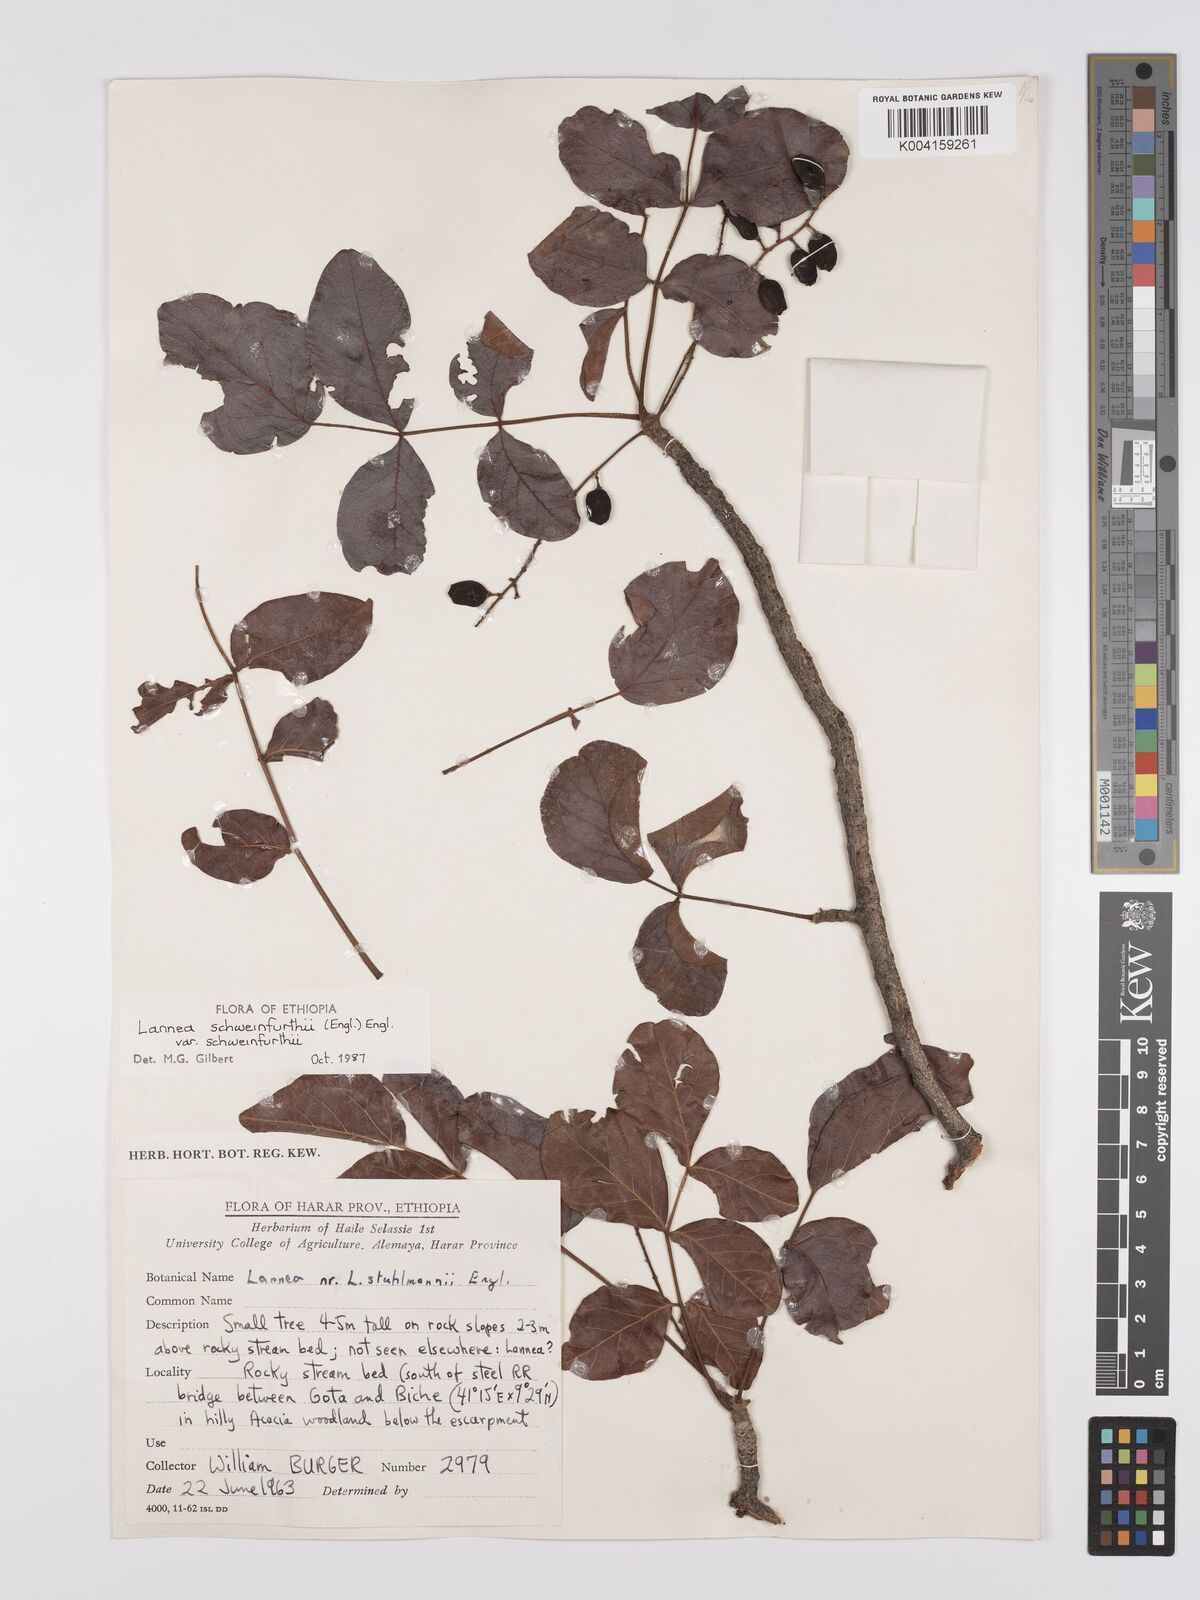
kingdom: Plantae
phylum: Tracheophyta
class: Magnoliopsida
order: Sapindales
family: Anacardiaceae
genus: Lannea
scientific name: Lannea schweinfurthii
